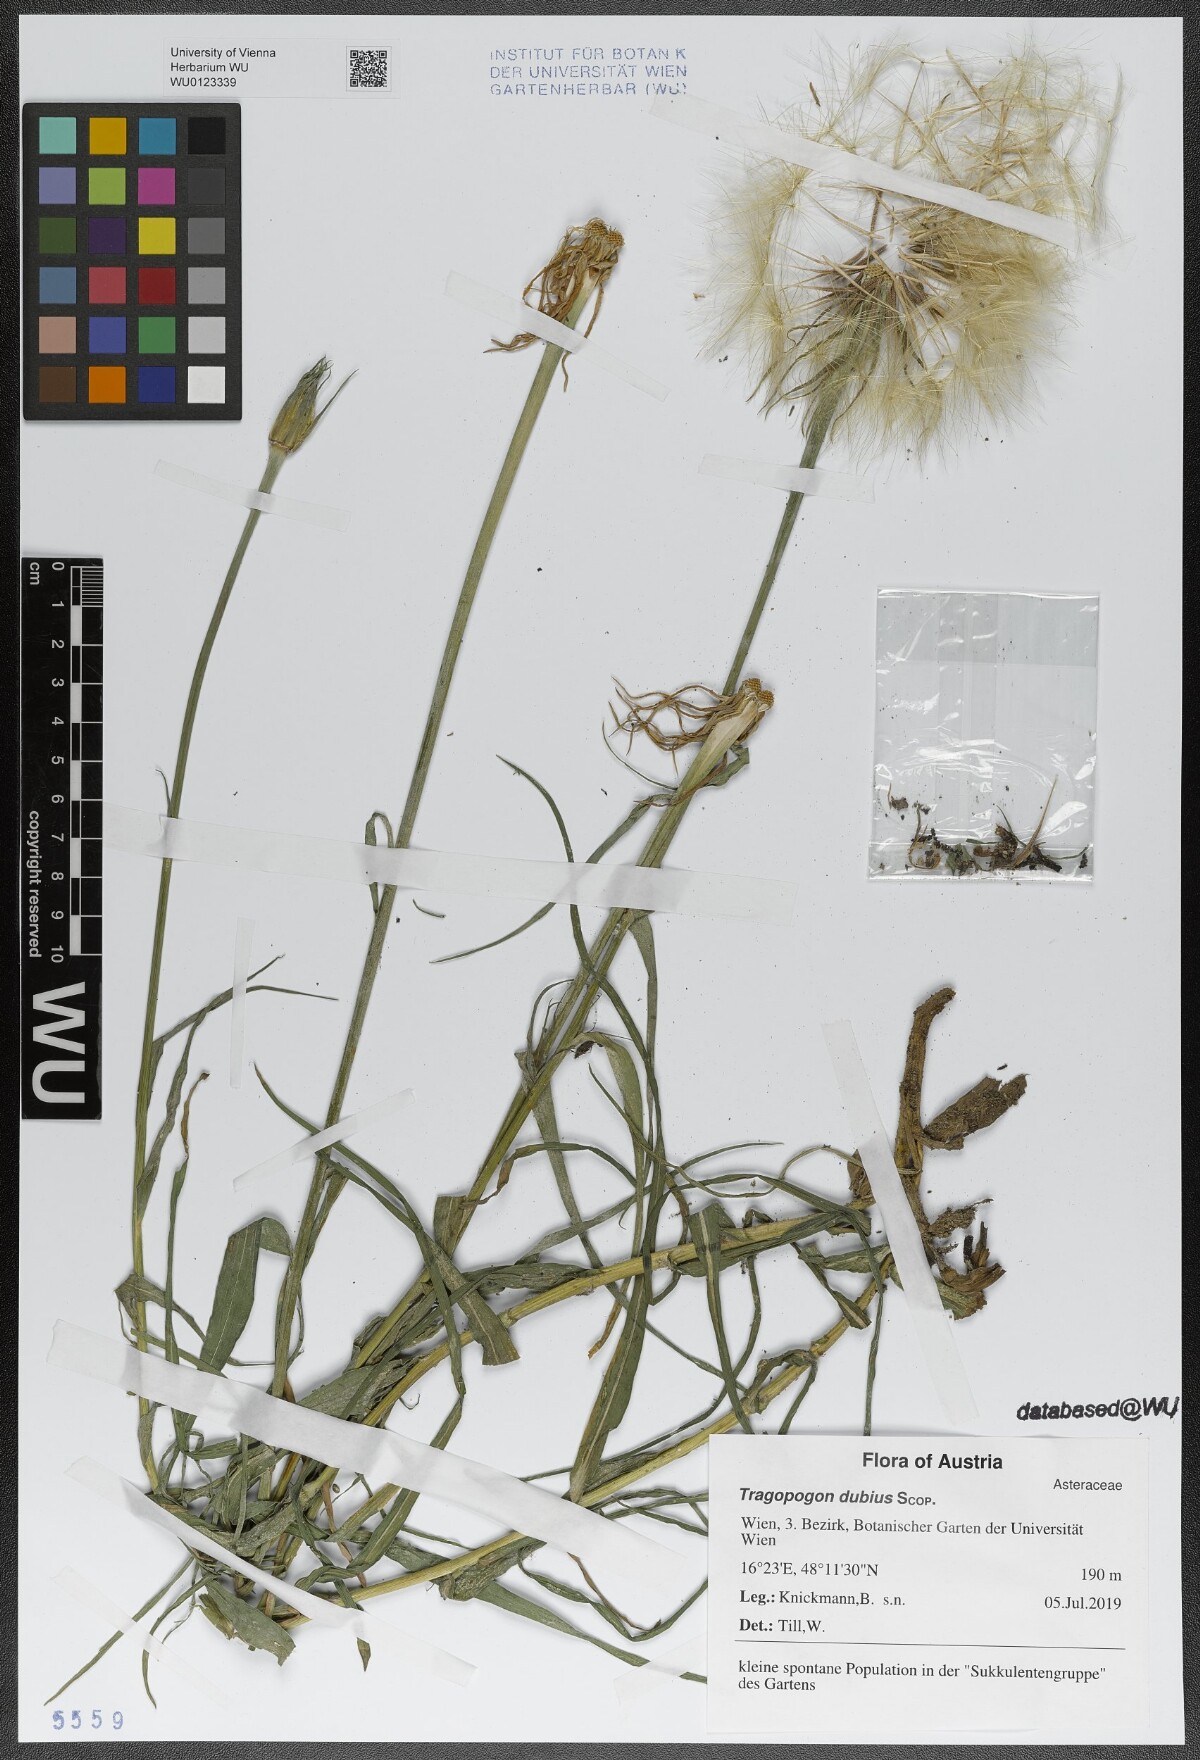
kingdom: Plantae
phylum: Tracheophyta
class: Magnoliopsida
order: Asterales
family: Asteraceae
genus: Tragopogon
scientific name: Tragopogon dubius
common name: Yellow salsify
